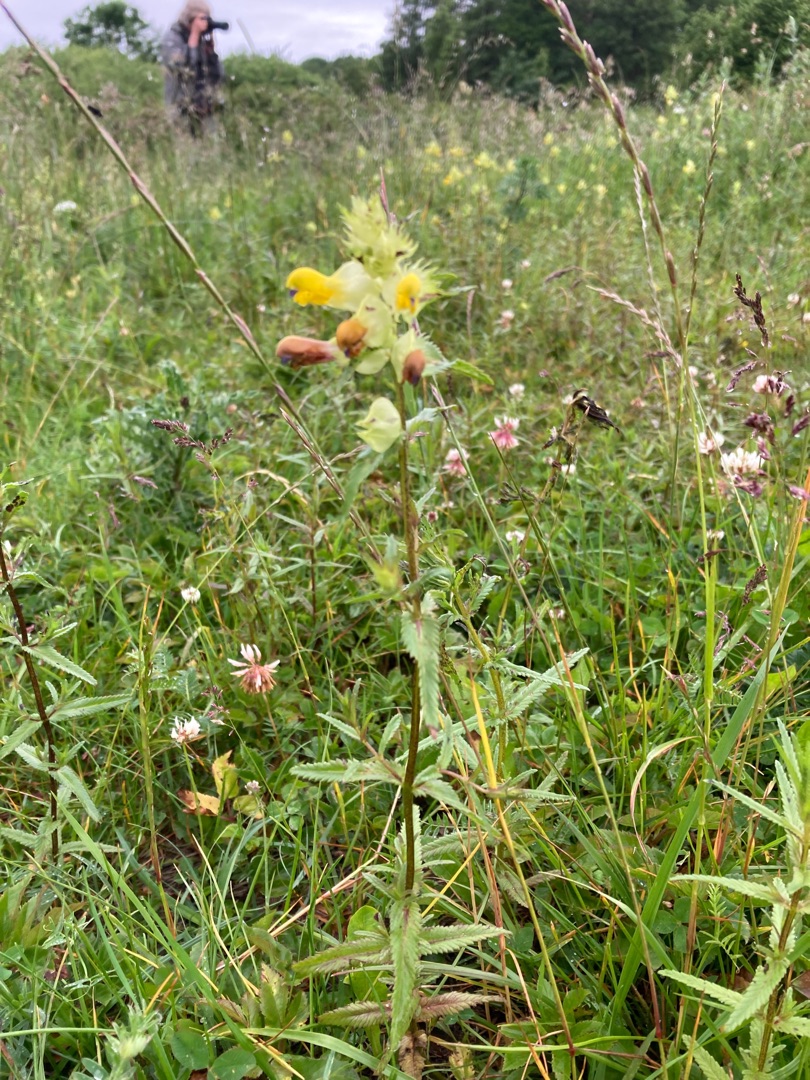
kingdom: Plantae
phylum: Tracheophyta
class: Magnoliopsida
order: Lamiales
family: Orobanchaceae
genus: Rhinanthus
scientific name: Rhinanthus
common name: Stor skjaller
